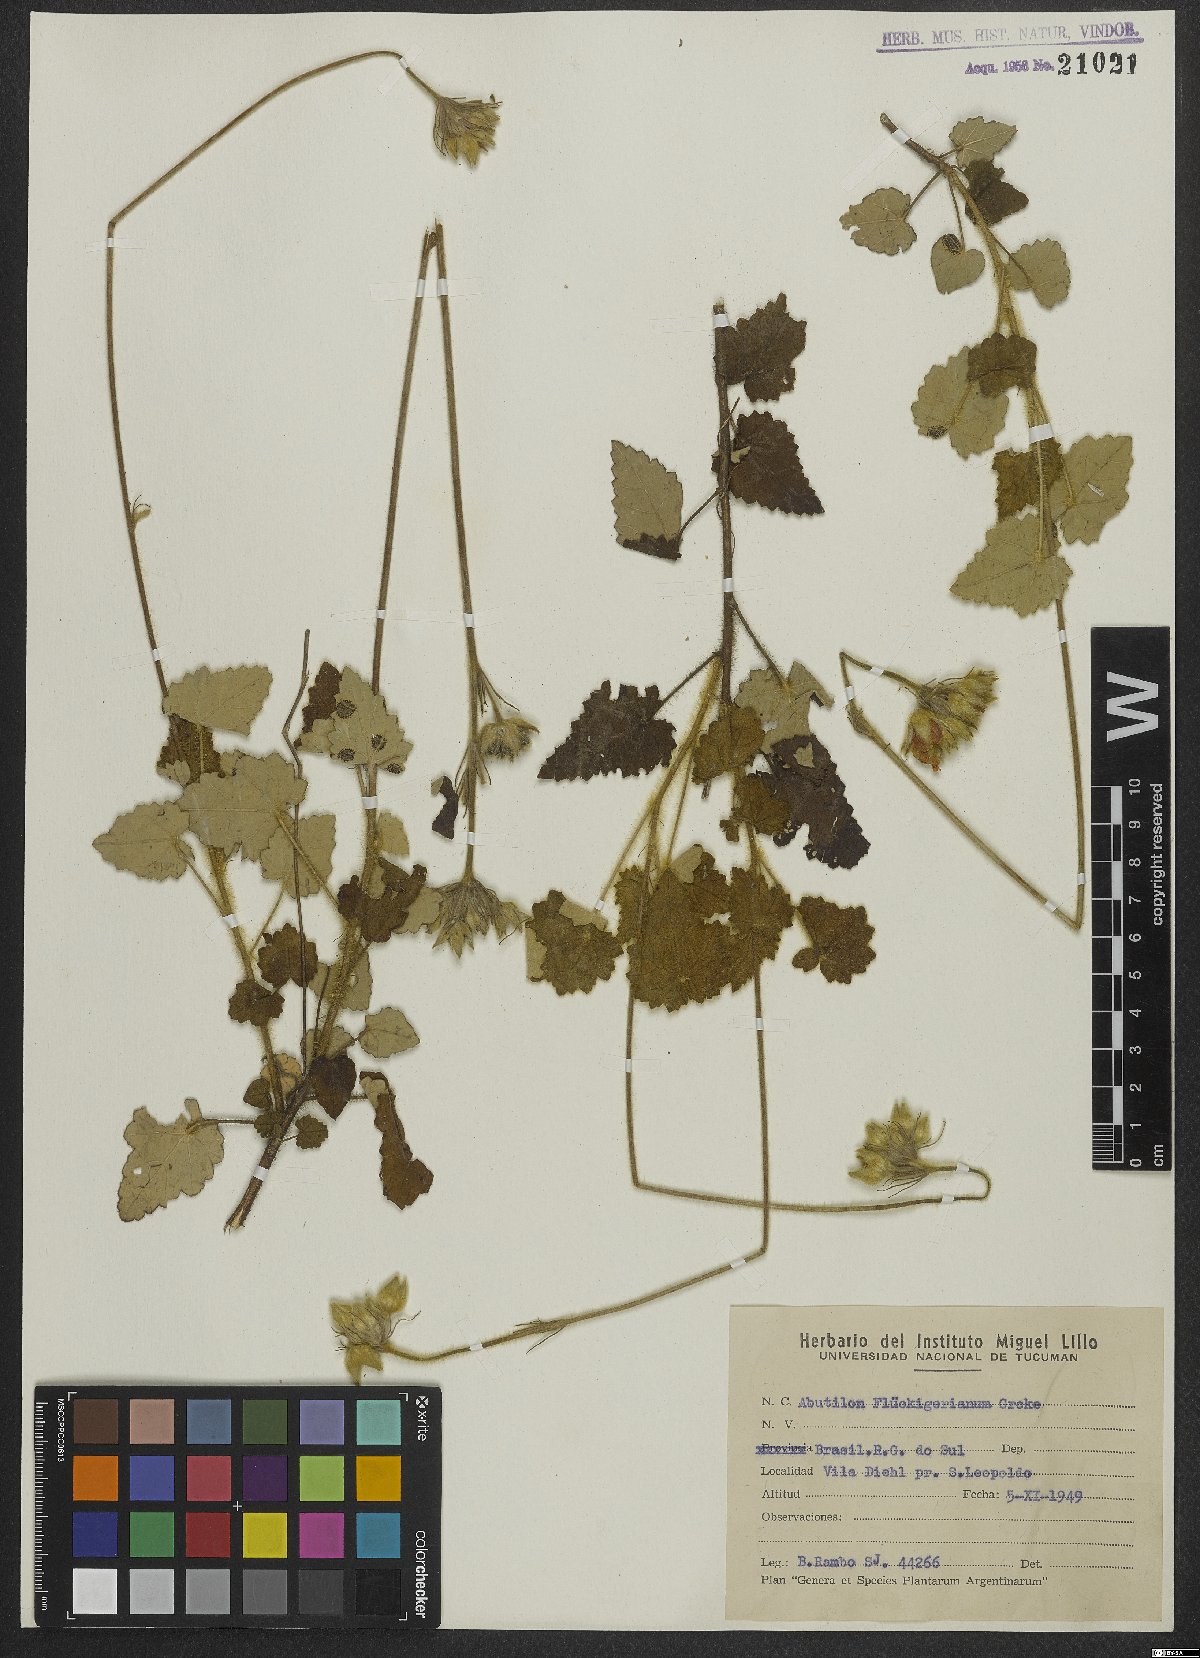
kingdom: Plantae
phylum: Tracheophyta
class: Magnoliopsida
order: Malvales
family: Malvaceae
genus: Abutilon
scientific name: Abutilon malachroides
